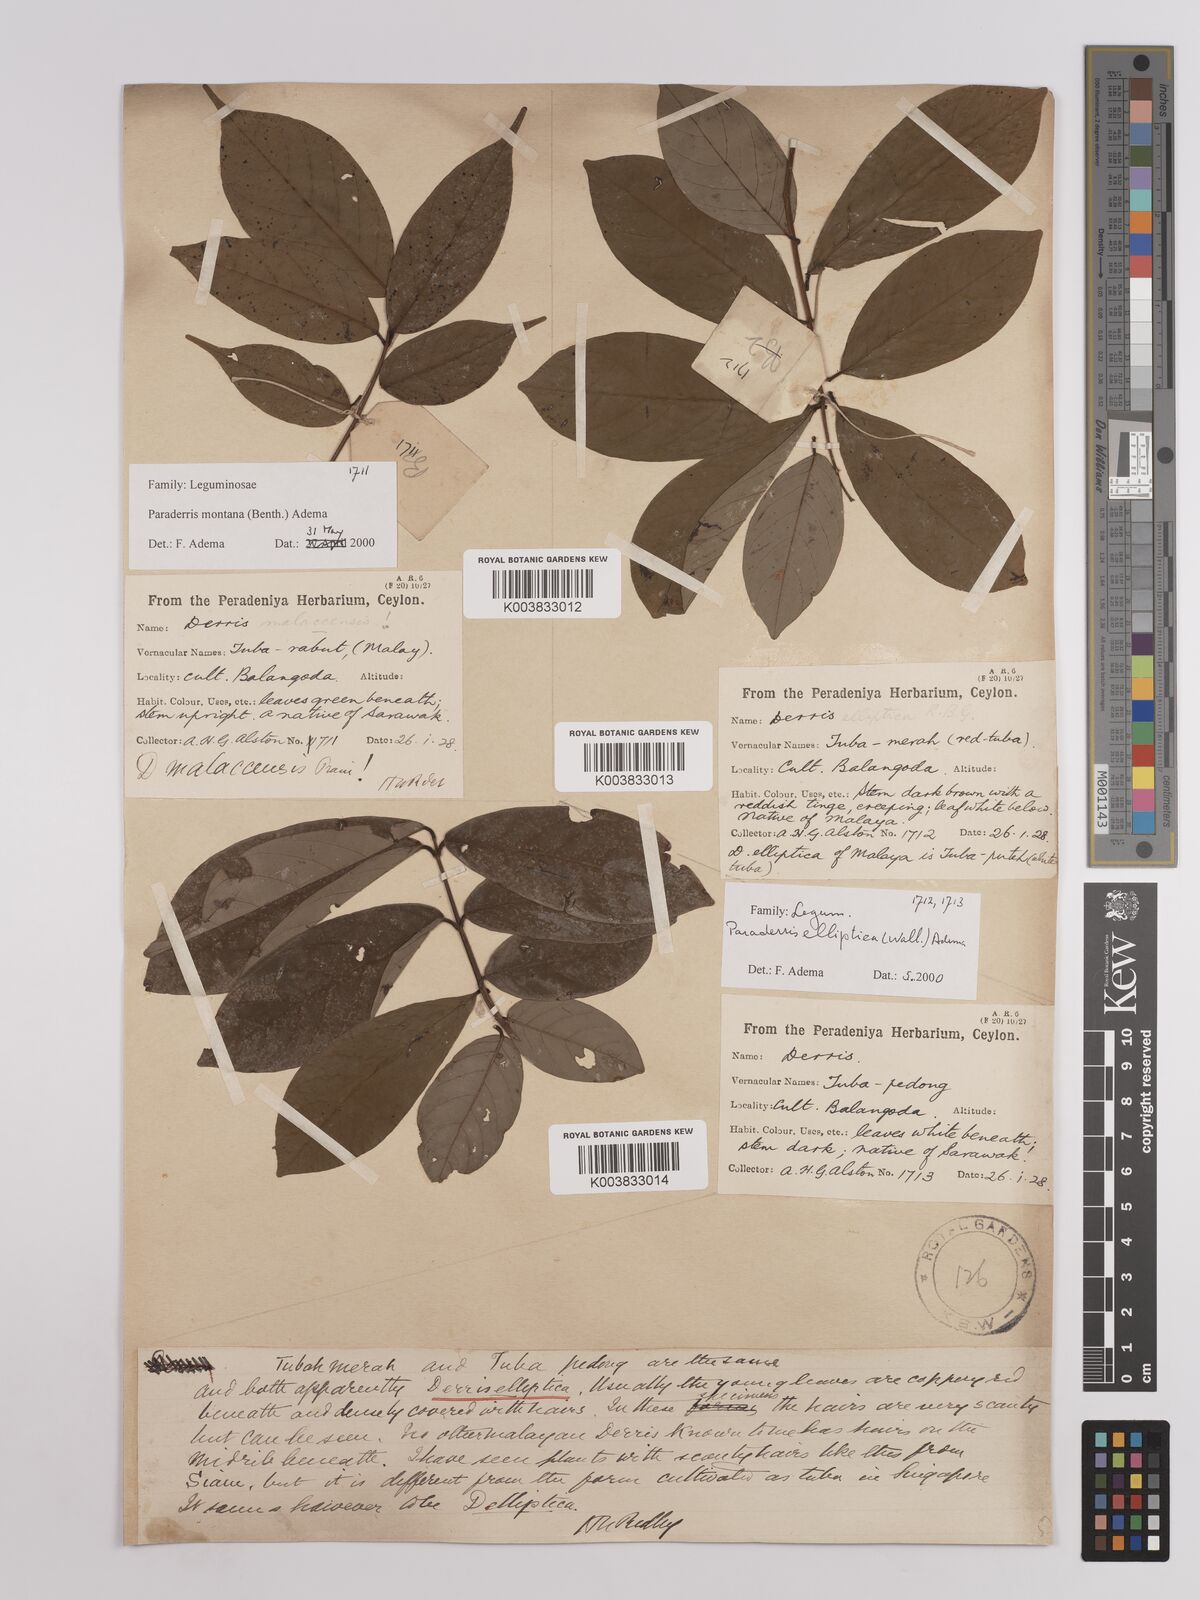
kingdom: Plantae
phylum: Tracheophyta
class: Magnoliopsida
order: Fabales
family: Fabaceae
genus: Derris
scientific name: Derris elliptica
